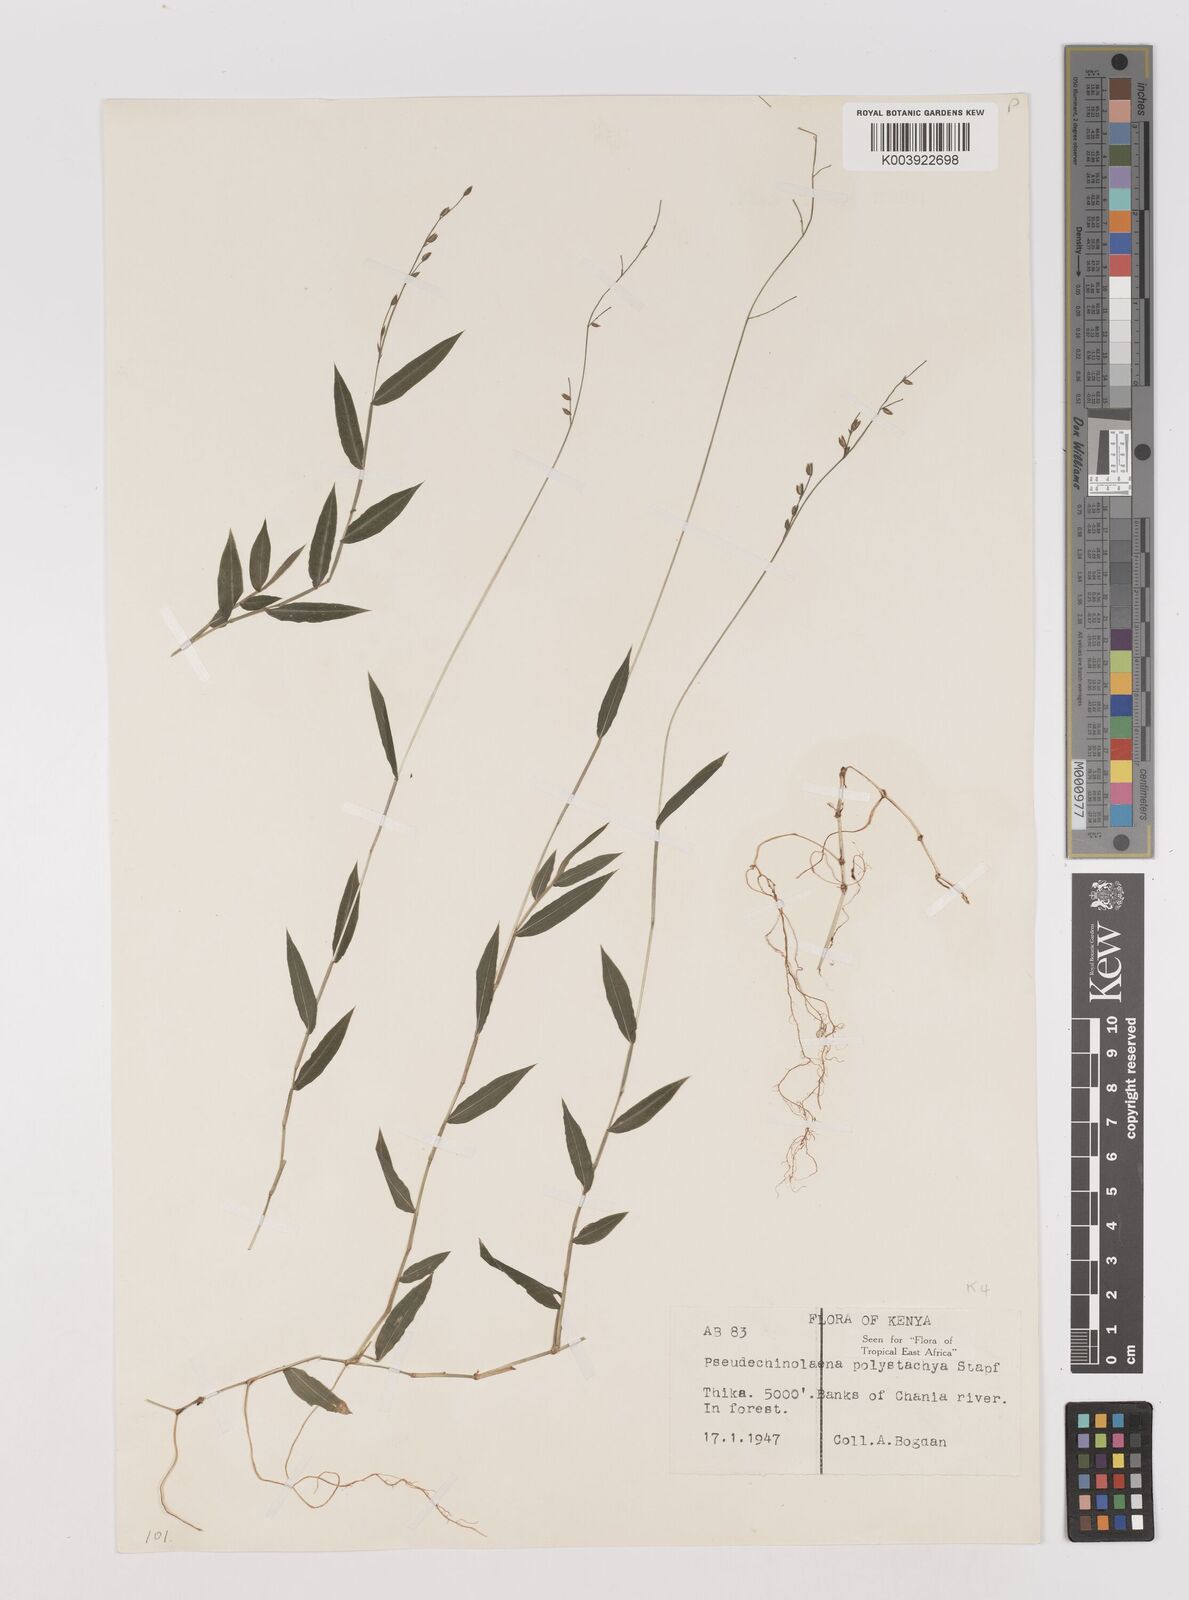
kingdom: Plantae
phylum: Tracheophyta
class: Liliopsida
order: Poales
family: Poaceae
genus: Pseudechinolaena
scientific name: Pseudechinolaena polystachya
